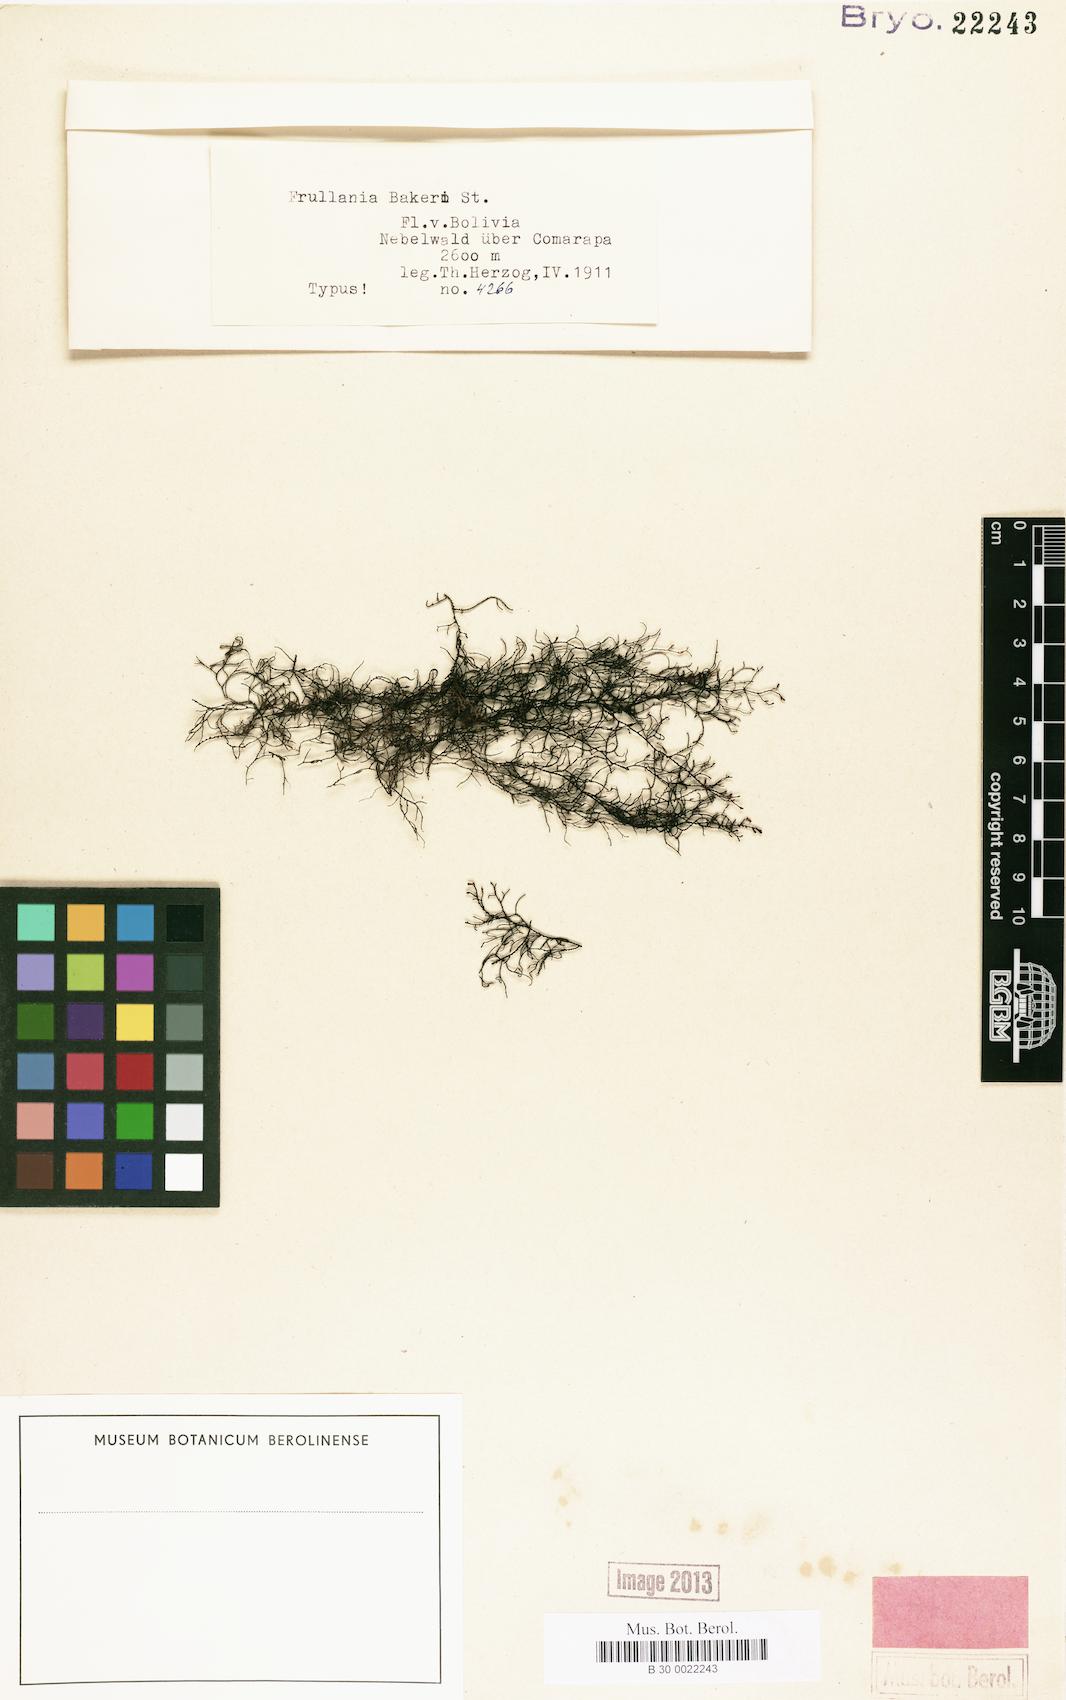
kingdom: Plantae
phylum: Marchantiophyta
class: Jungermanniopsida
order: Porellales
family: Frullaniaceae
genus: Frullania
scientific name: Frullania phalangiflora
